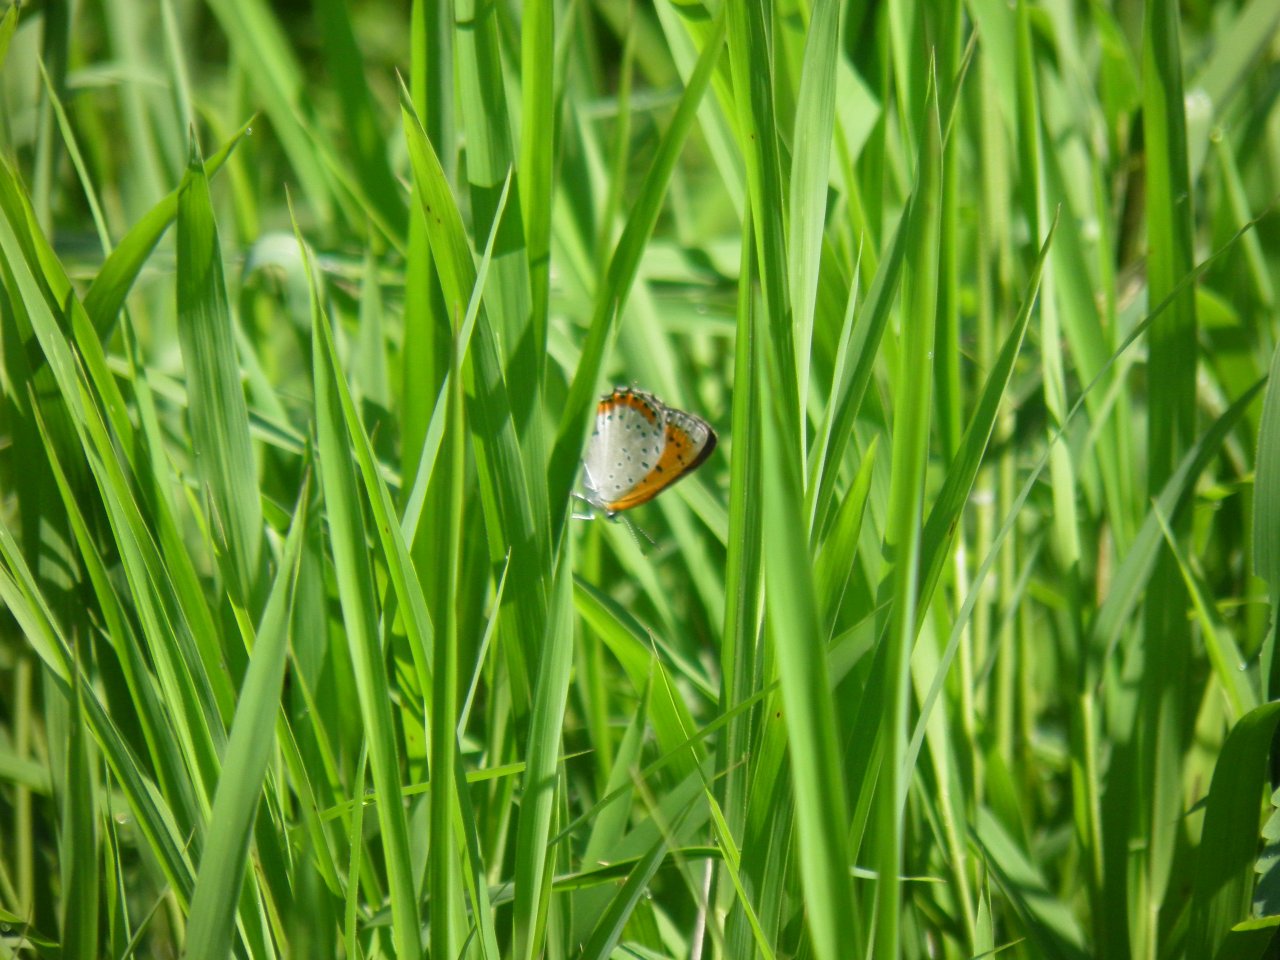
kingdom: Animalia
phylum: Arthropoda
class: Insecta
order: Lepidoptera
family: Sesiidae
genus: Sesia
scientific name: Sesia Lycaena hyllus
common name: Bronze Copper
